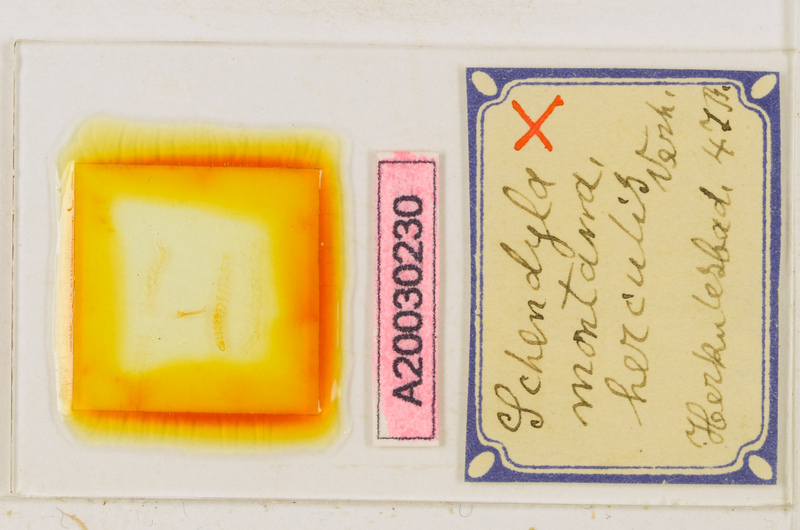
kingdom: Animalia
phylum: Arthropoda
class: Chilopoda
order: Geophilomorpha
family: Schendylidae
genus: Schendyla
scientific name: Schendyla montana
